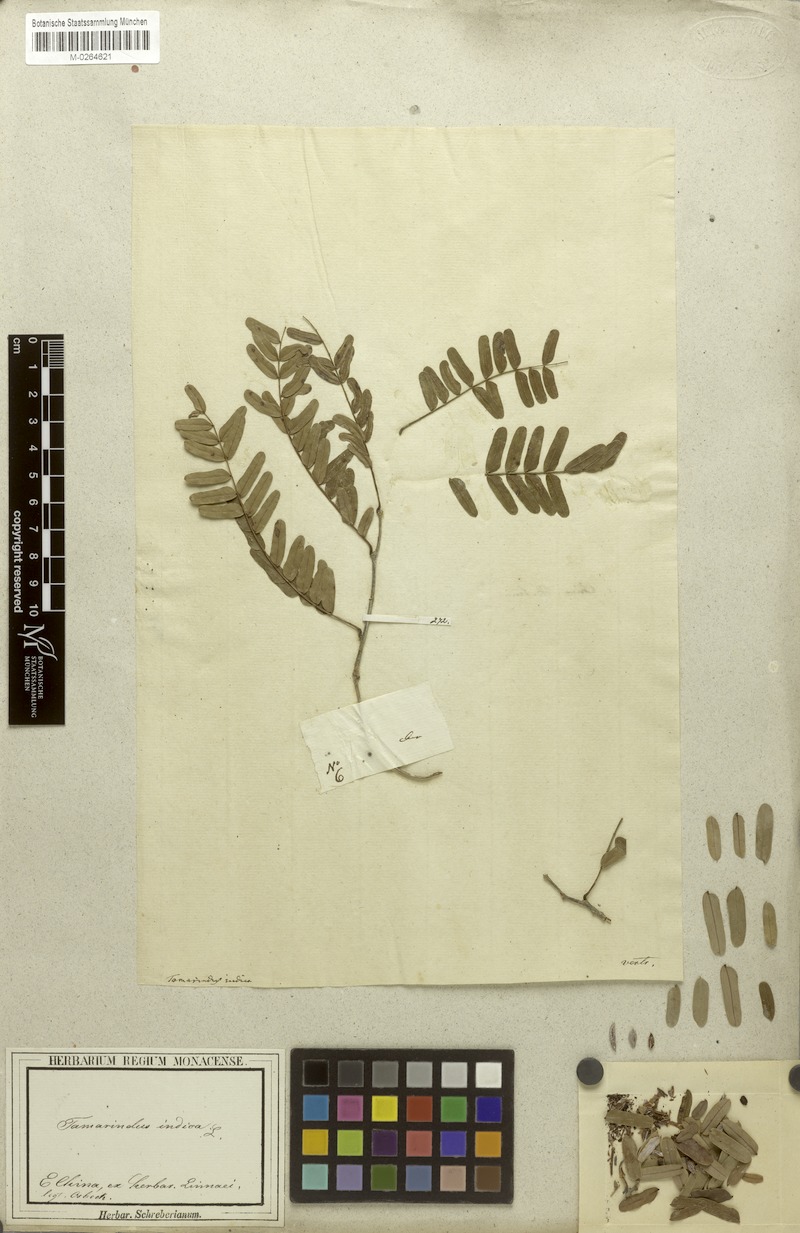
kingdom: Plantae
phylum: Tracheophyta
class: Magnoliopsida
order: Fabales
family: Fabaceae
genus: Tamarindus
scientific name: Tamarindus indica
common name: Tamarind
